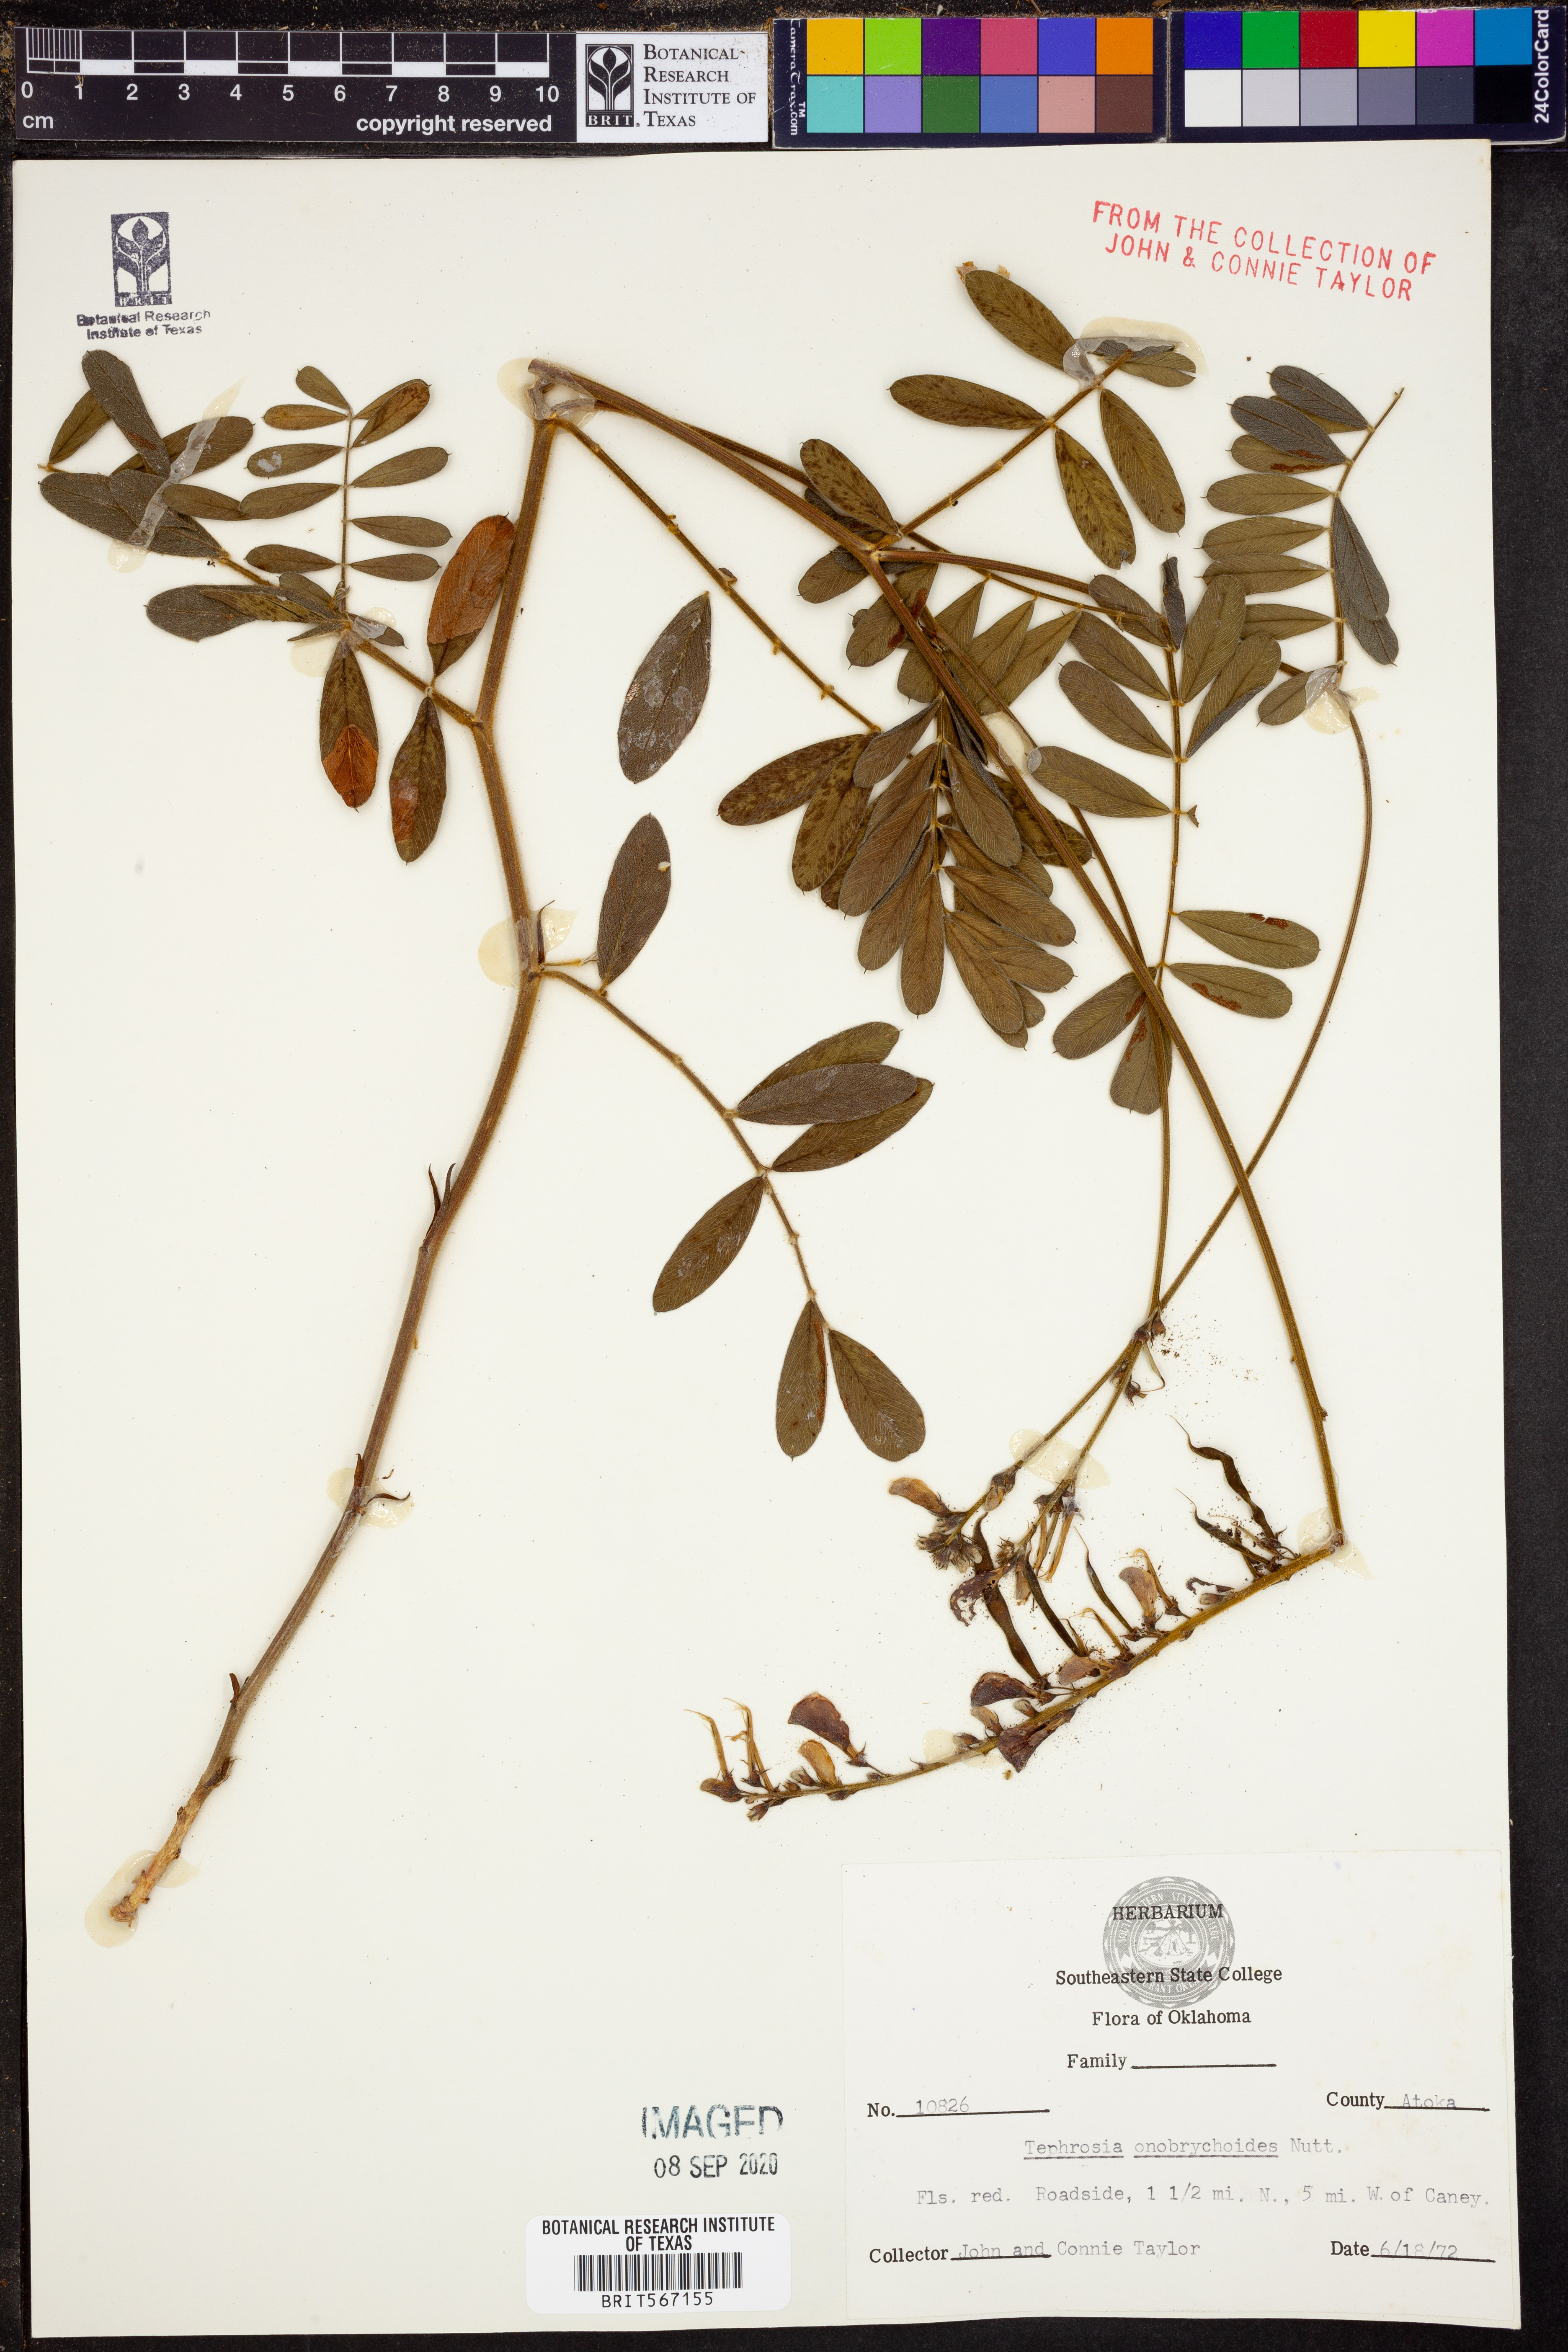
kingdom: Plantae
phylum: Tracheophyta
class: Magnoliopsida
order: Fabales
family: Fabaceae
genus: Tephrosia
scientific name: Tephrosia onobrychoides
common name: Multi-bloom hoary-pea
